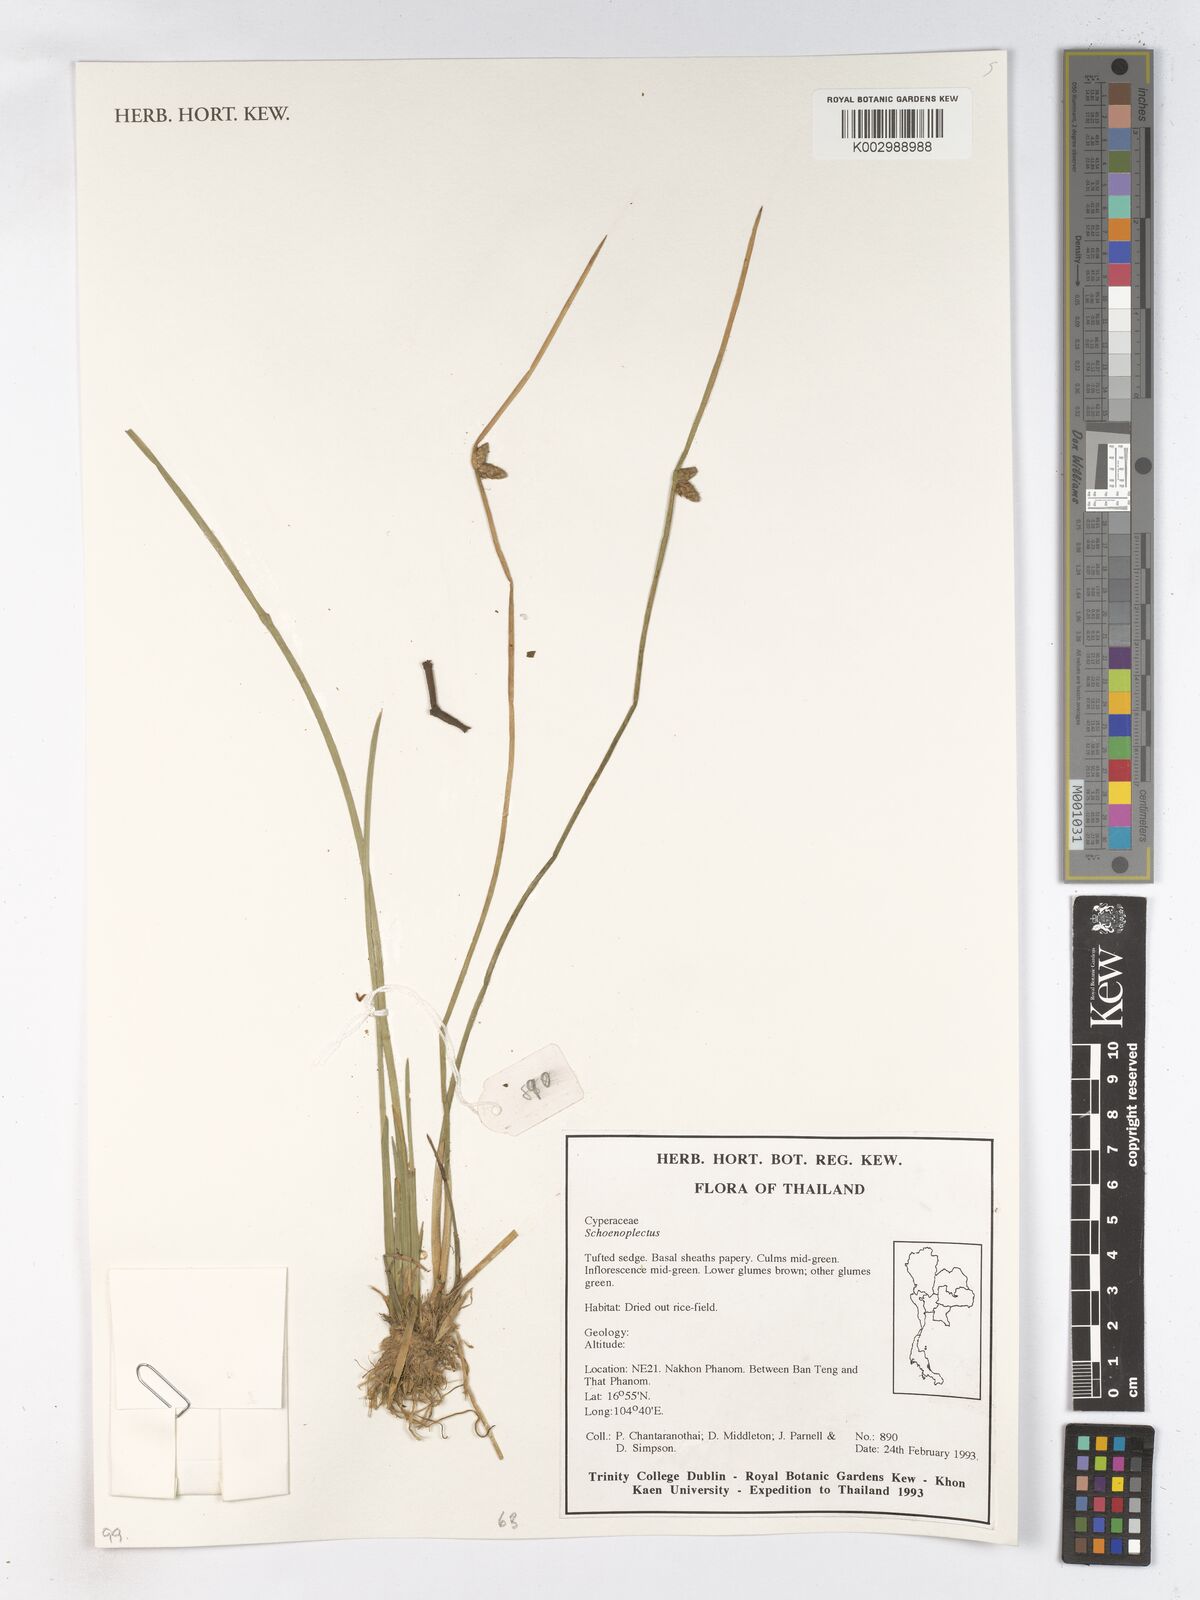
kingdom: Plantae
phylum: Tracheophyta
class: Liliopsida
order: Poales
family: Cyperaceae
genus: Schoenoplectus
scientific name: Schoenoplectus
